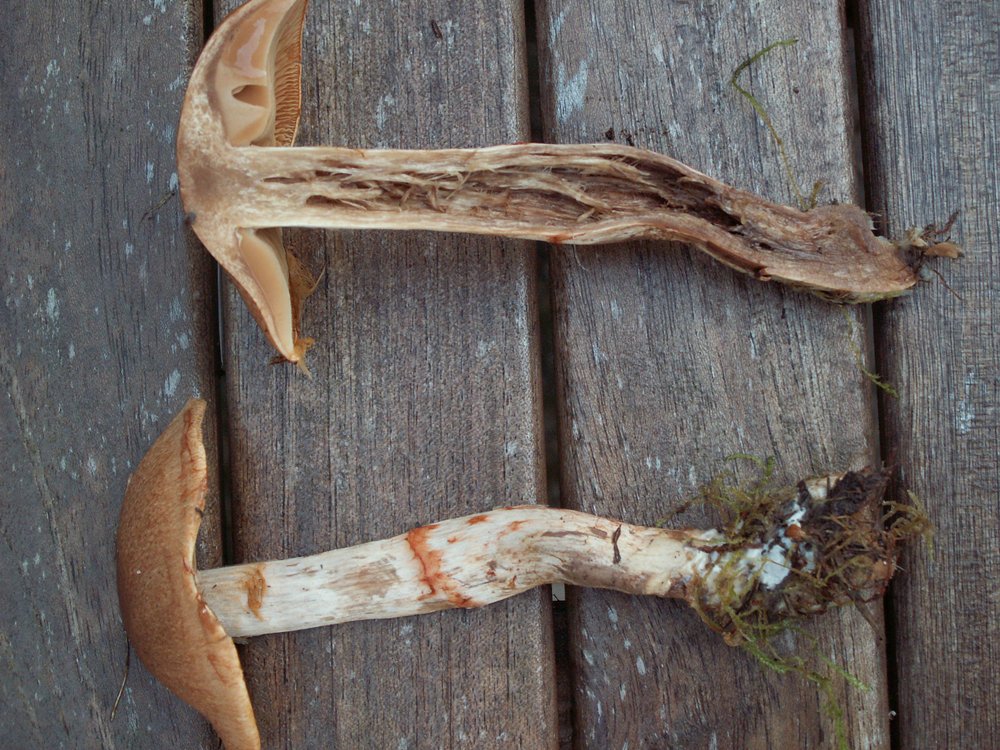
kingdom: Fungi
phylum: Basidiomycota
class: Agaricomycetes
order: Agaricales
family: Cortinariaceae
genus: Cortinarius
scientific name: Cortinarius armillatus
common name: cinnoberbæltet slørhat
